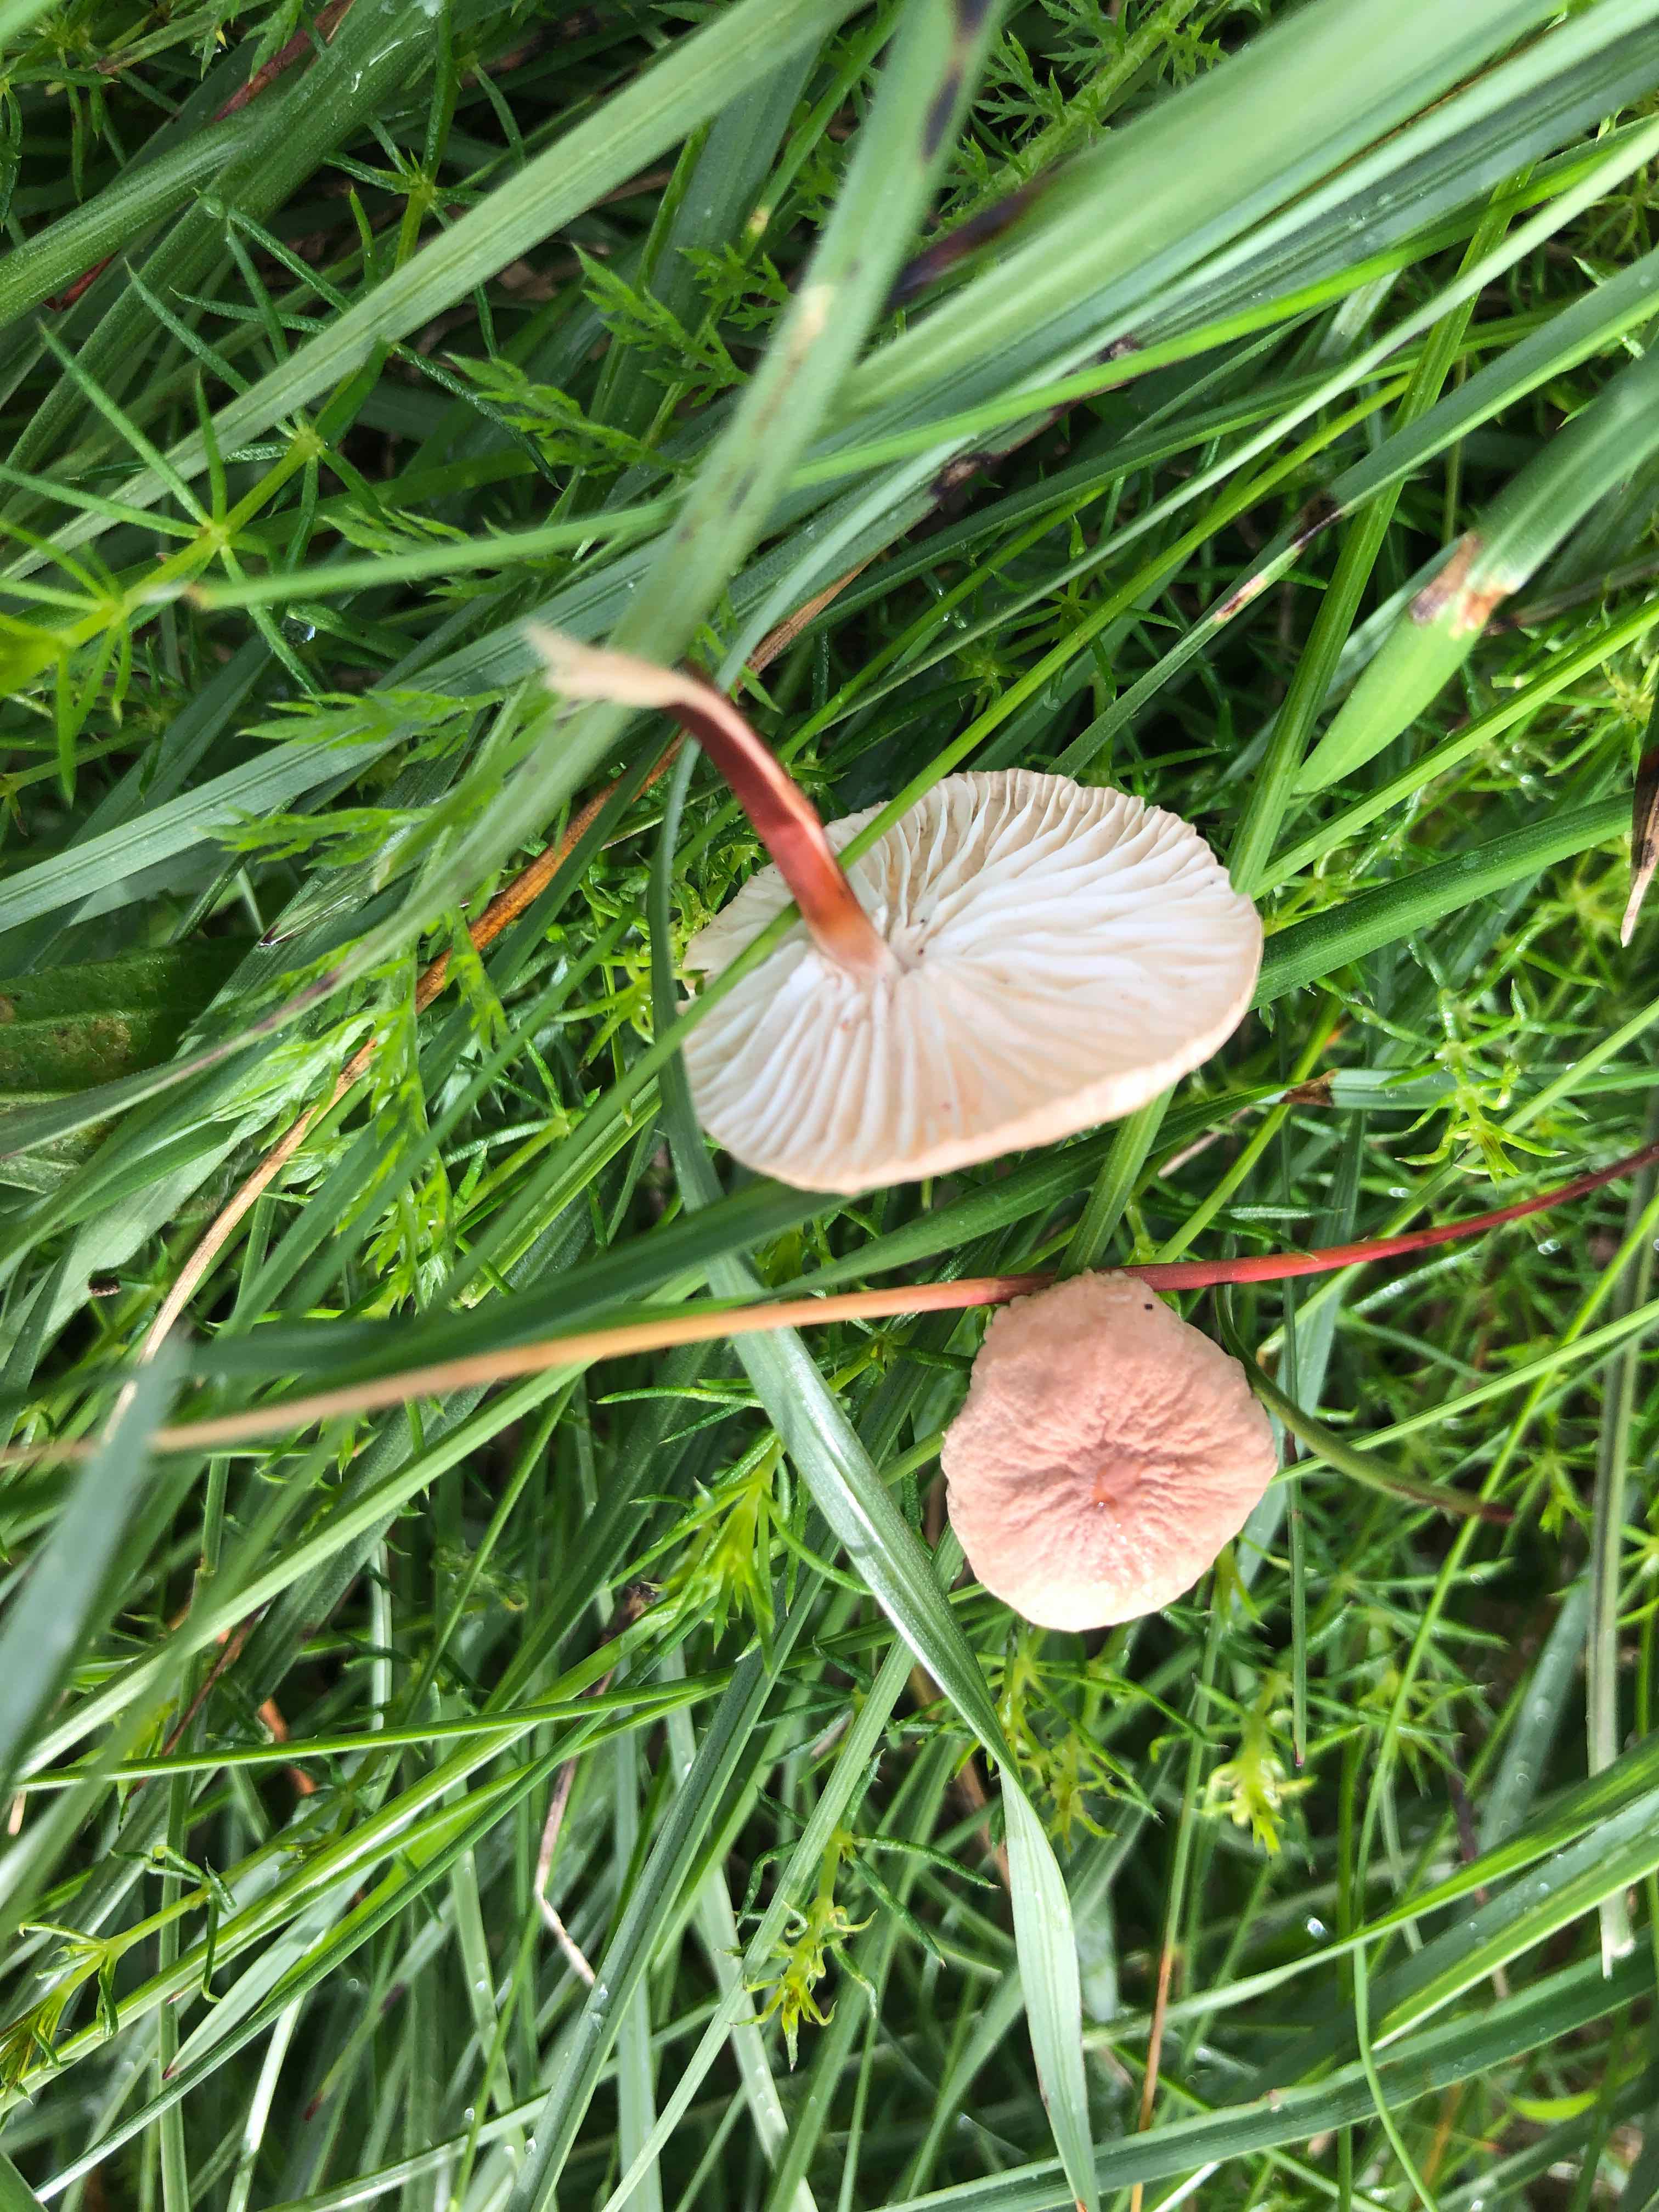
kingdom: Fungi
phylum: Basidiomycota
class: Agaricomycetes
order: Agaricales
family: Omphalotaceae
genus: Mycetinis
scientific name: Mycetinis scorodonius
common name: lille løghat
